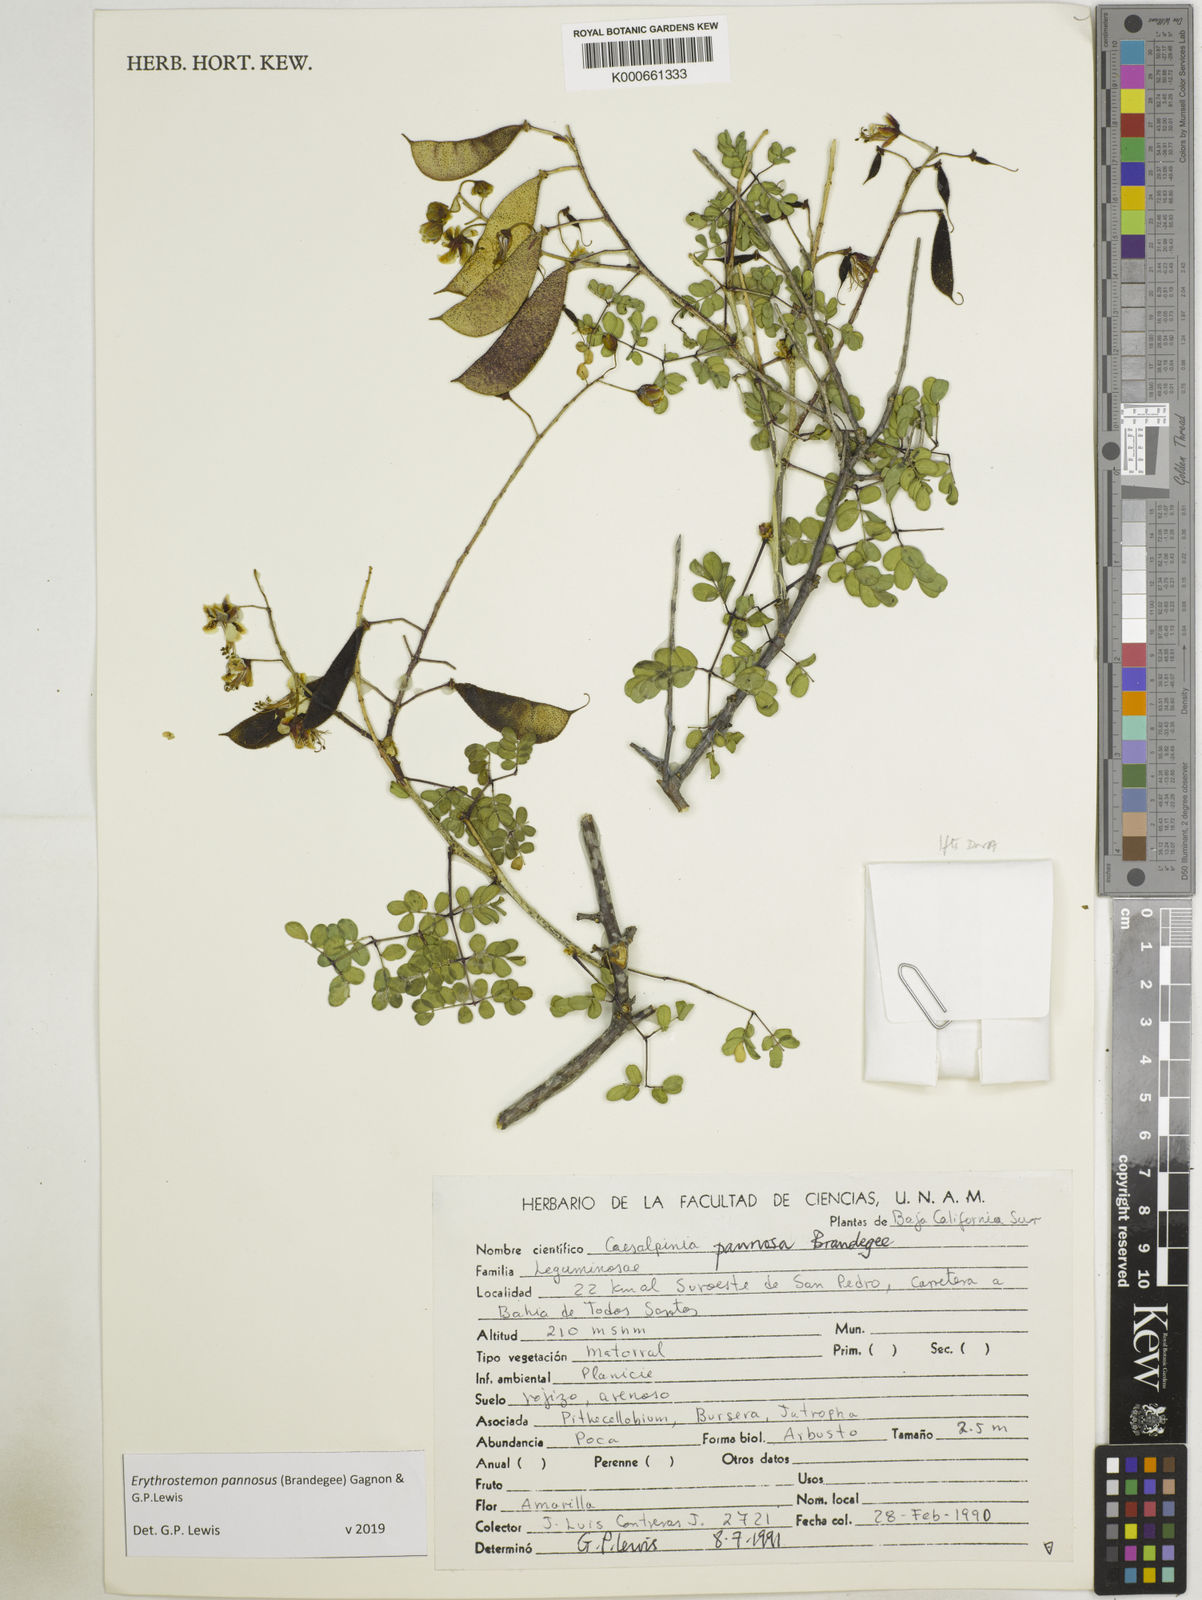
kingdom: Plantae
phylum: Tracheophyta
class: Magnoliopsida
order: Fabales
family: Fabaceae
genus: Erythrostemon
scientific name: Erythrostemon pannosus
